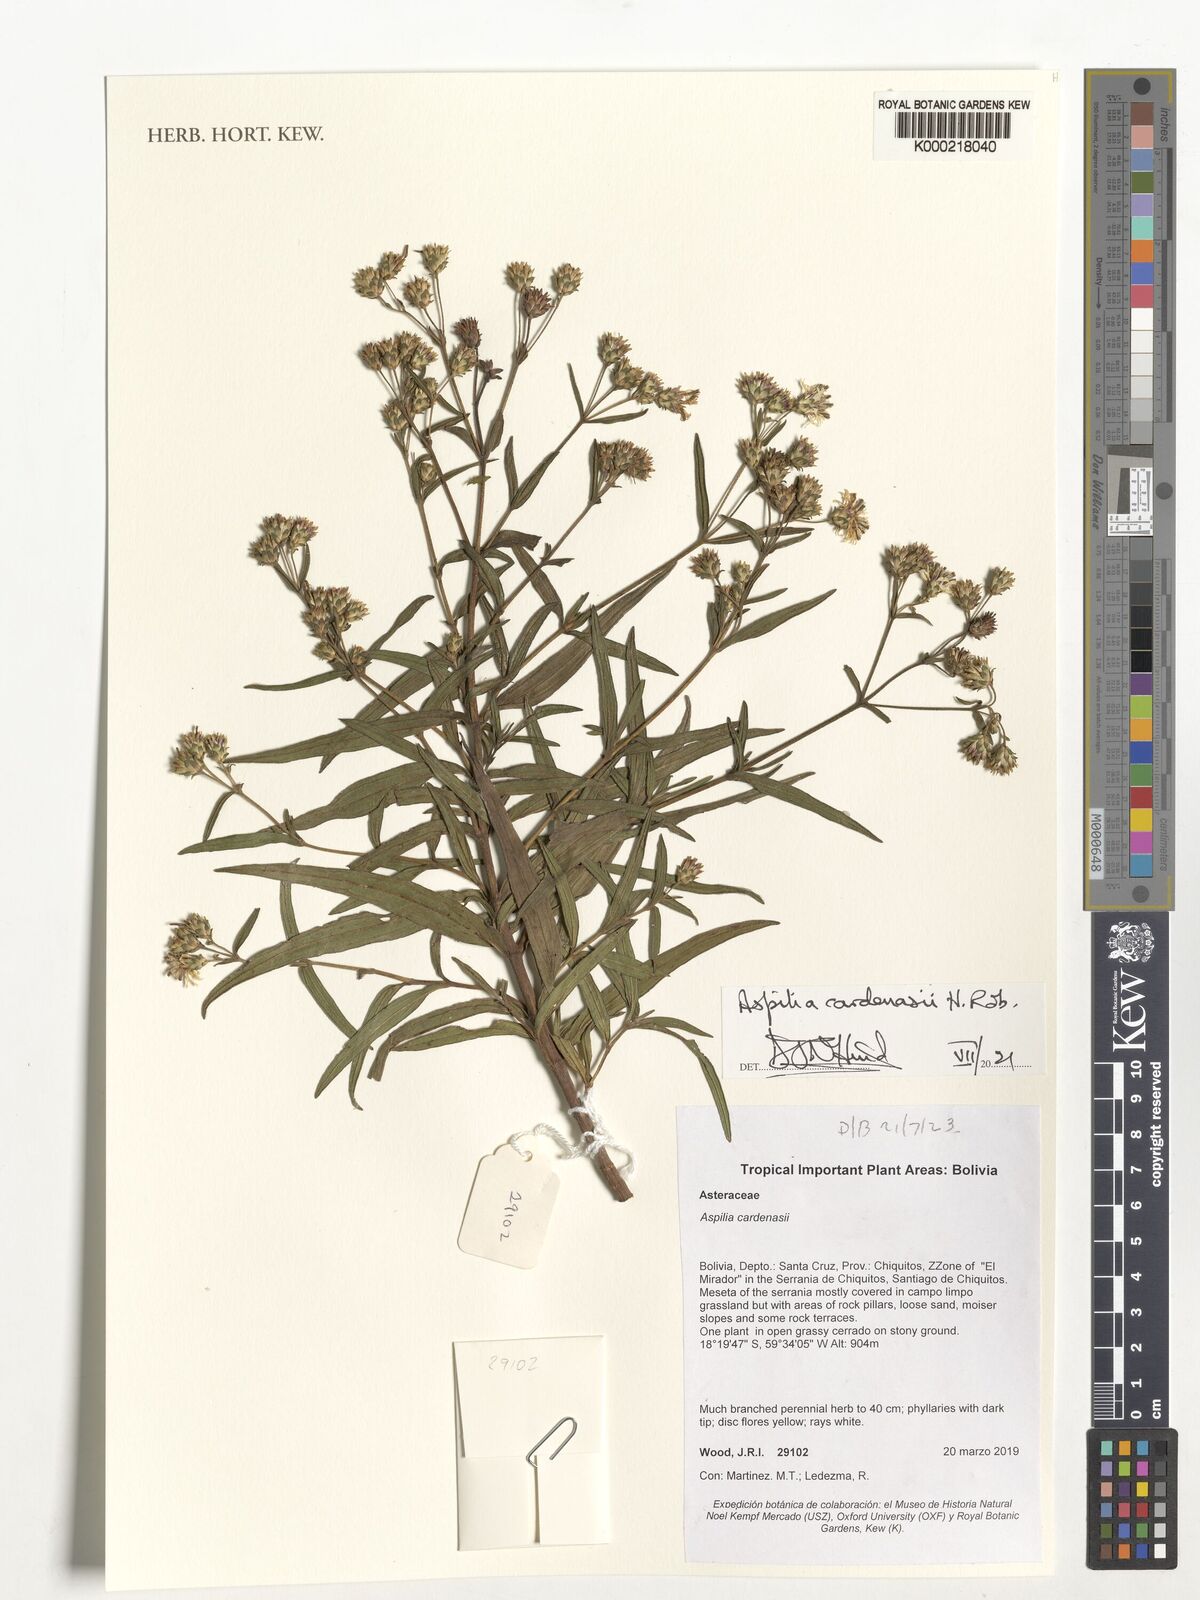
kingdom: Plantae
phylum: Tracheophyta
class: Magnoliopsida
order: Asterales
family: Asteraceae
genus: Wedelia
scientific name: Wedelia cardenasii
